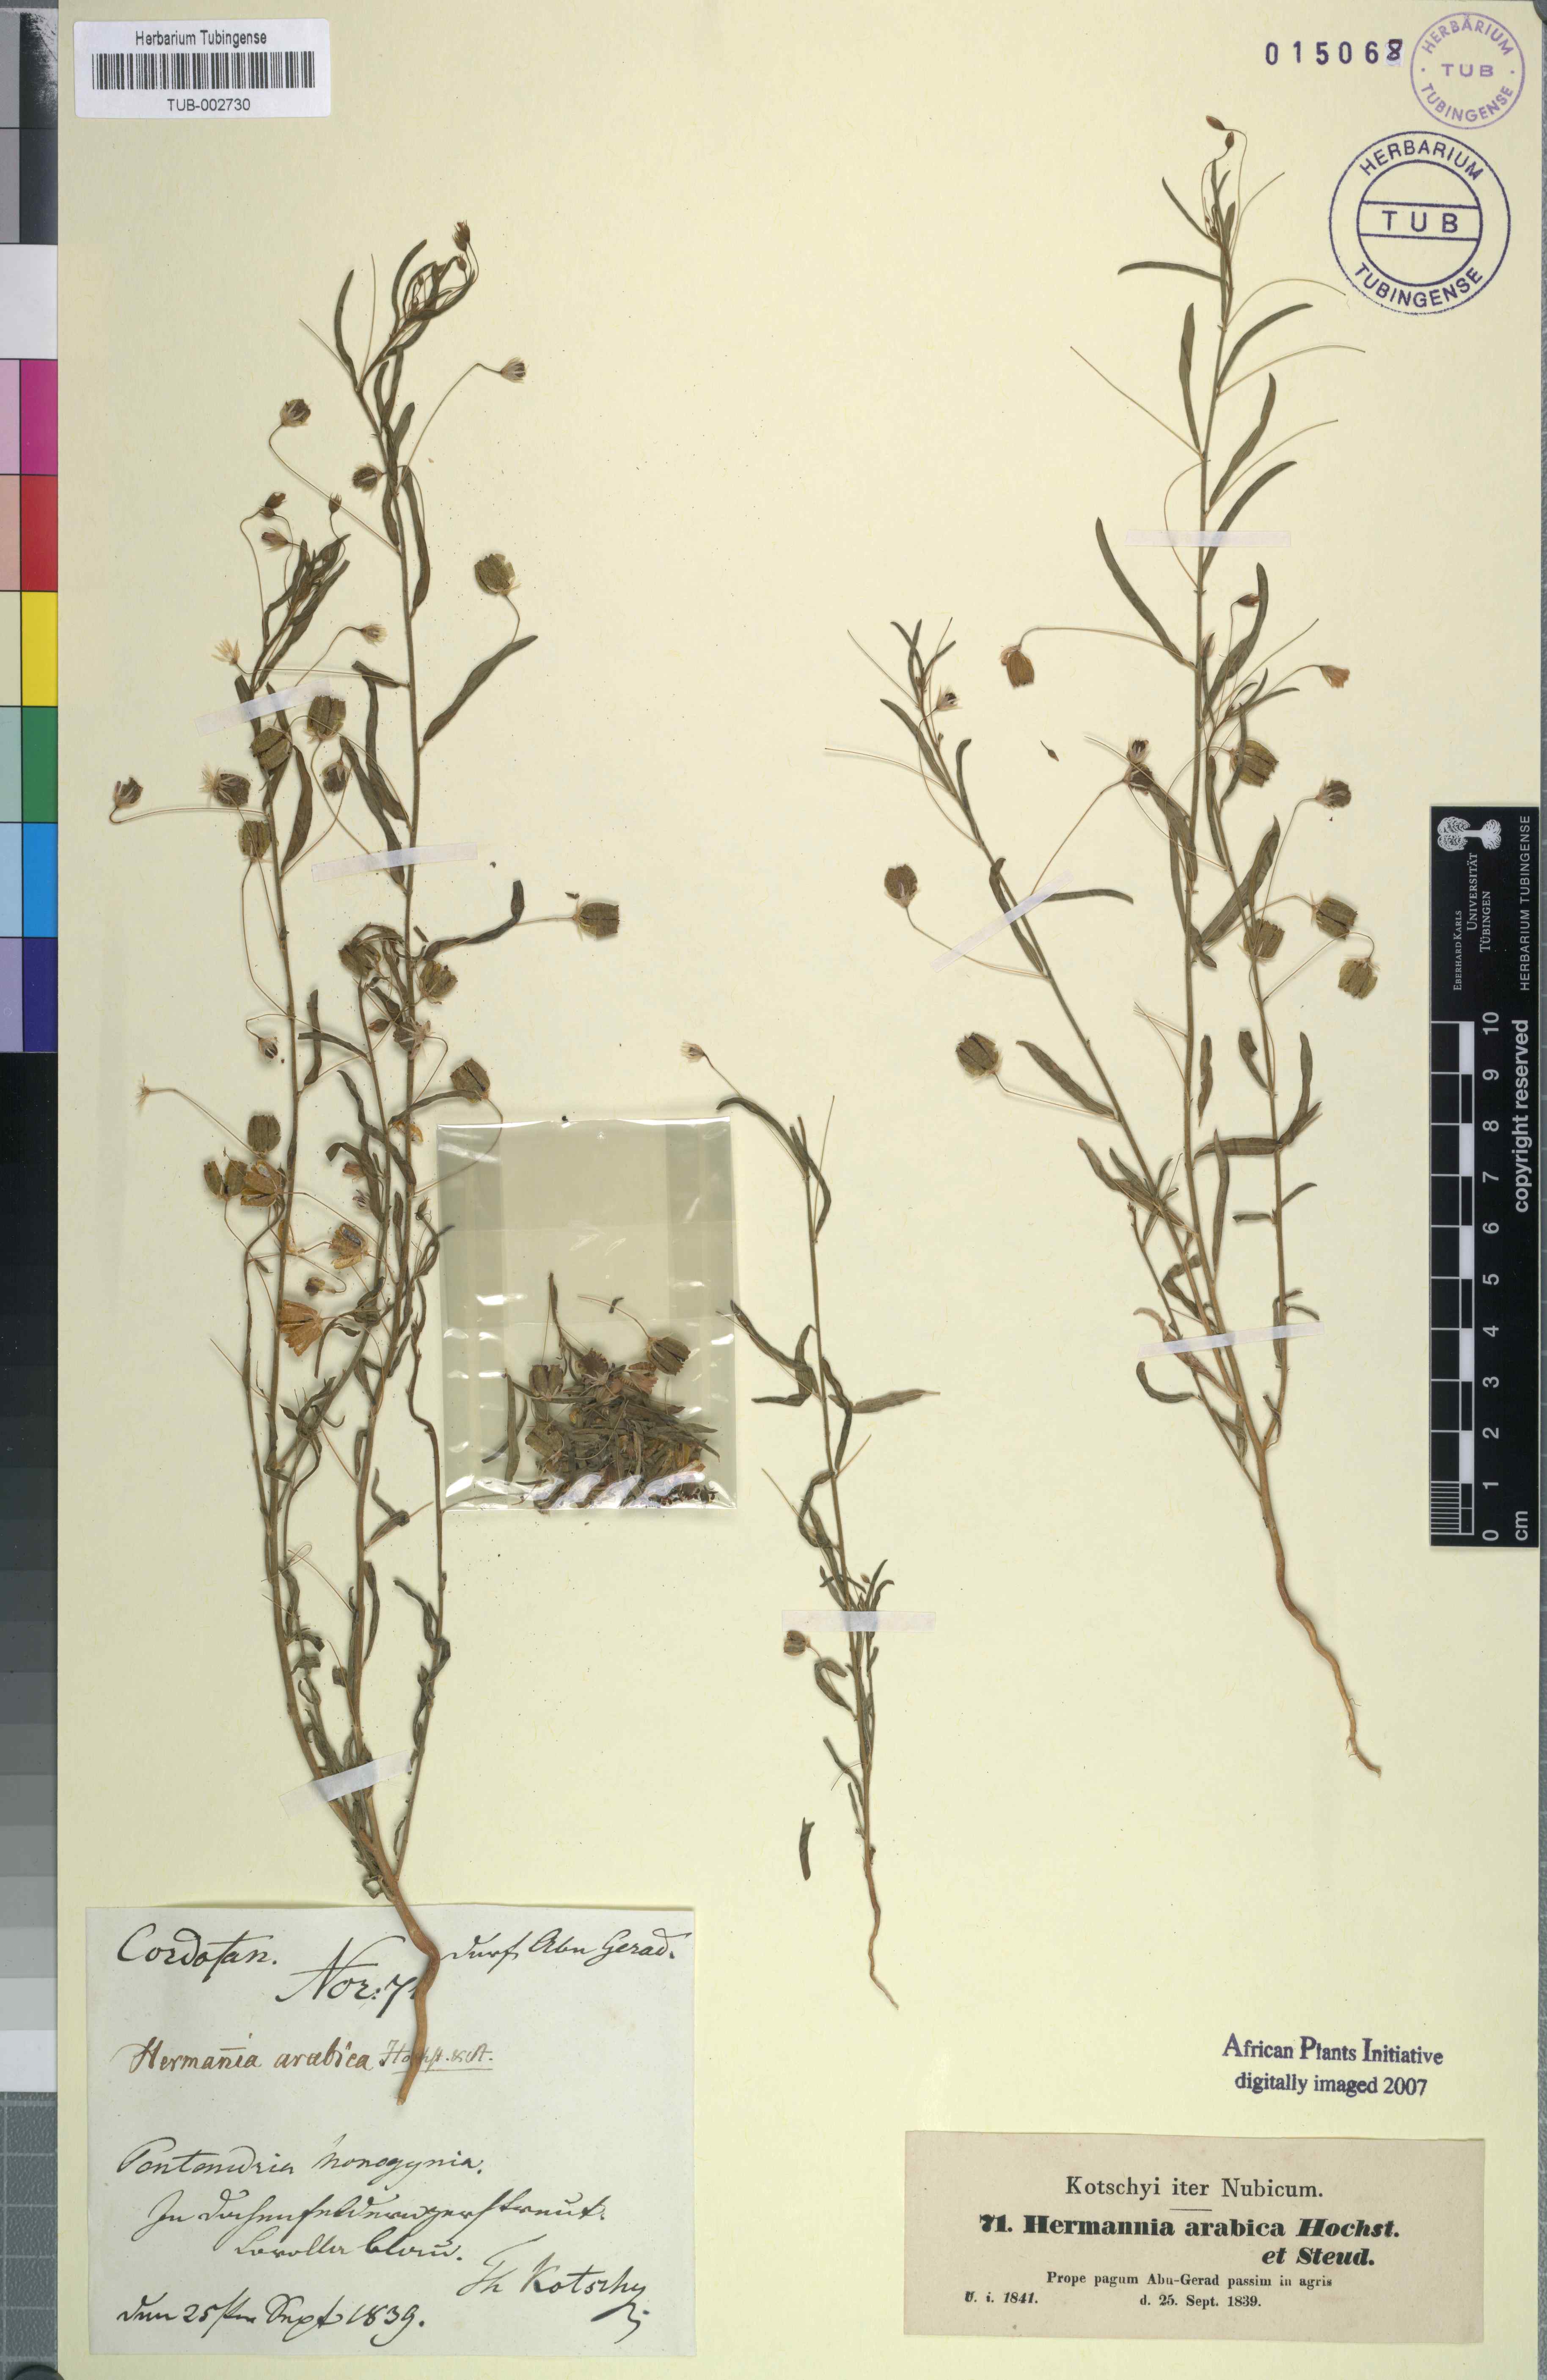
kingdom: Plantae
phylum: Tracheophyta
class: Magnoliopsida
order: Malvales
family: Malvaceae
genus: Hermannia
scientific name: Hermannia modesta
